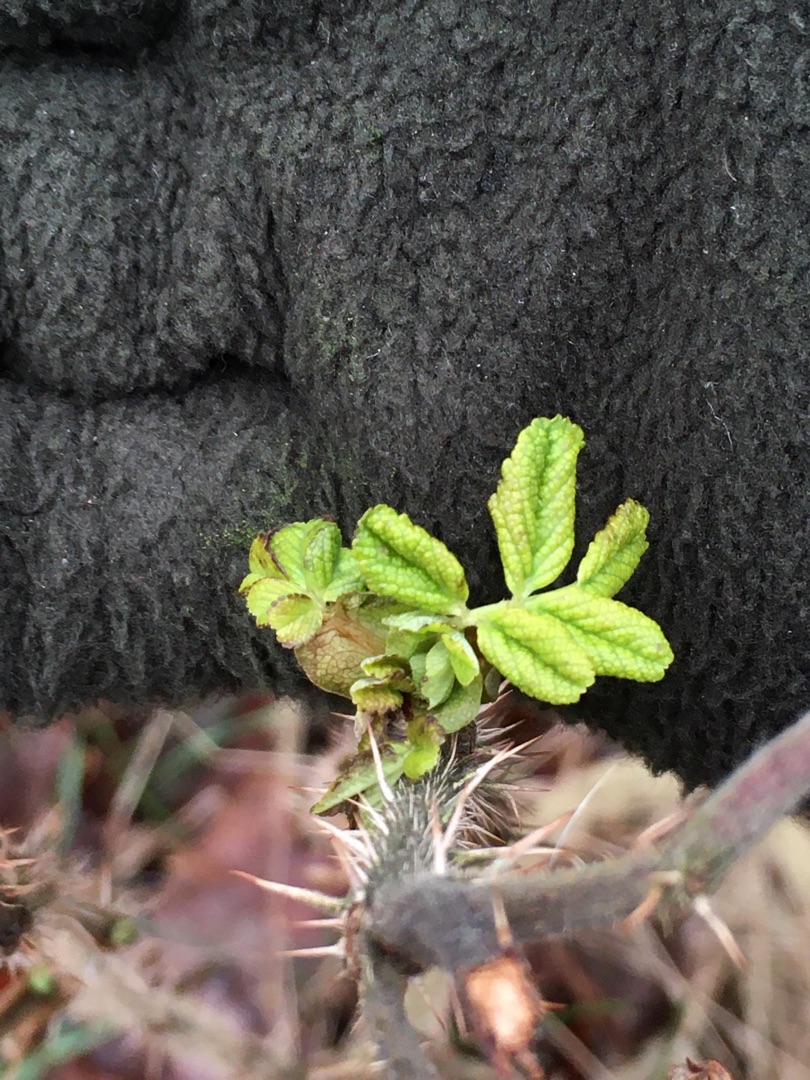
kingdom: Plantae
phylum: Tracheophyta
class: Magnoliopsida
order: Rosales
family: Rosaceae
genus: Rosa
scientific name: Rosa rugosa
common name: Rynket rose
